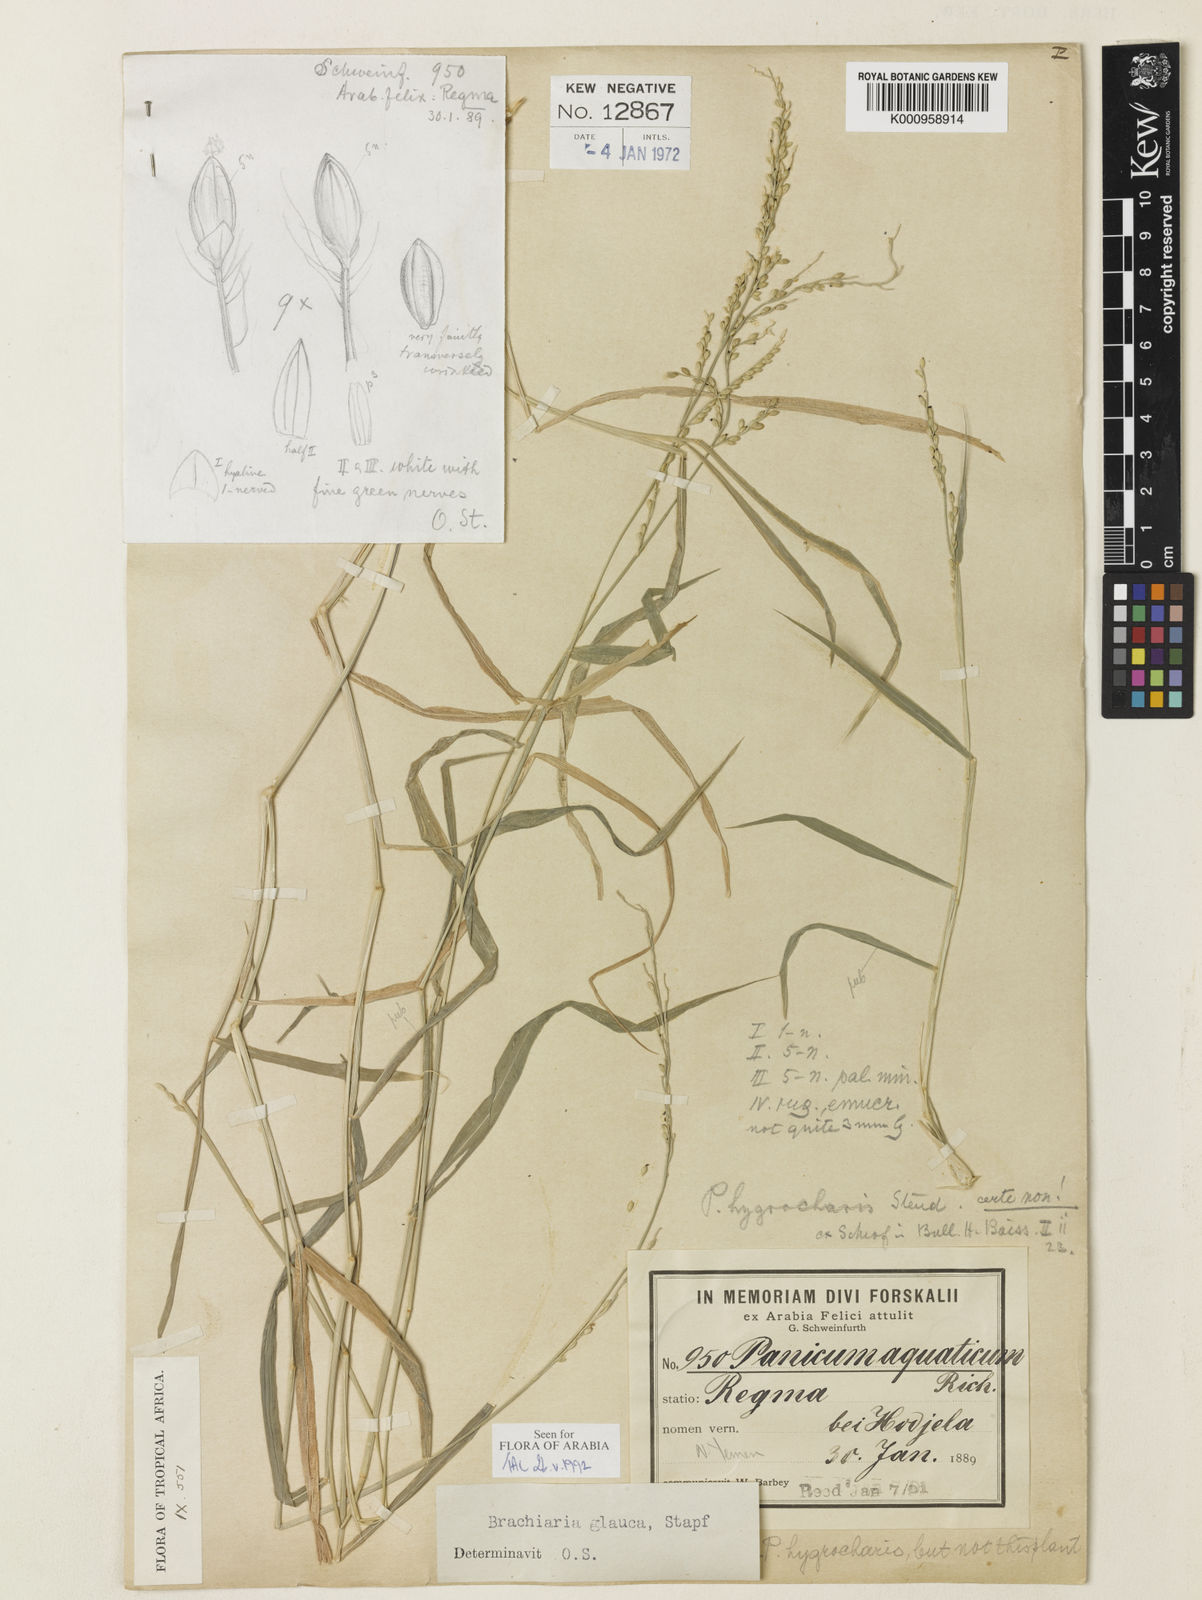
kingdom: Plantae
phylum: Tracheophyta
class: Liliopsida
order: Poales
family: Poaceae
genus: Urochloa
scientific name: Urochloa leersioides
